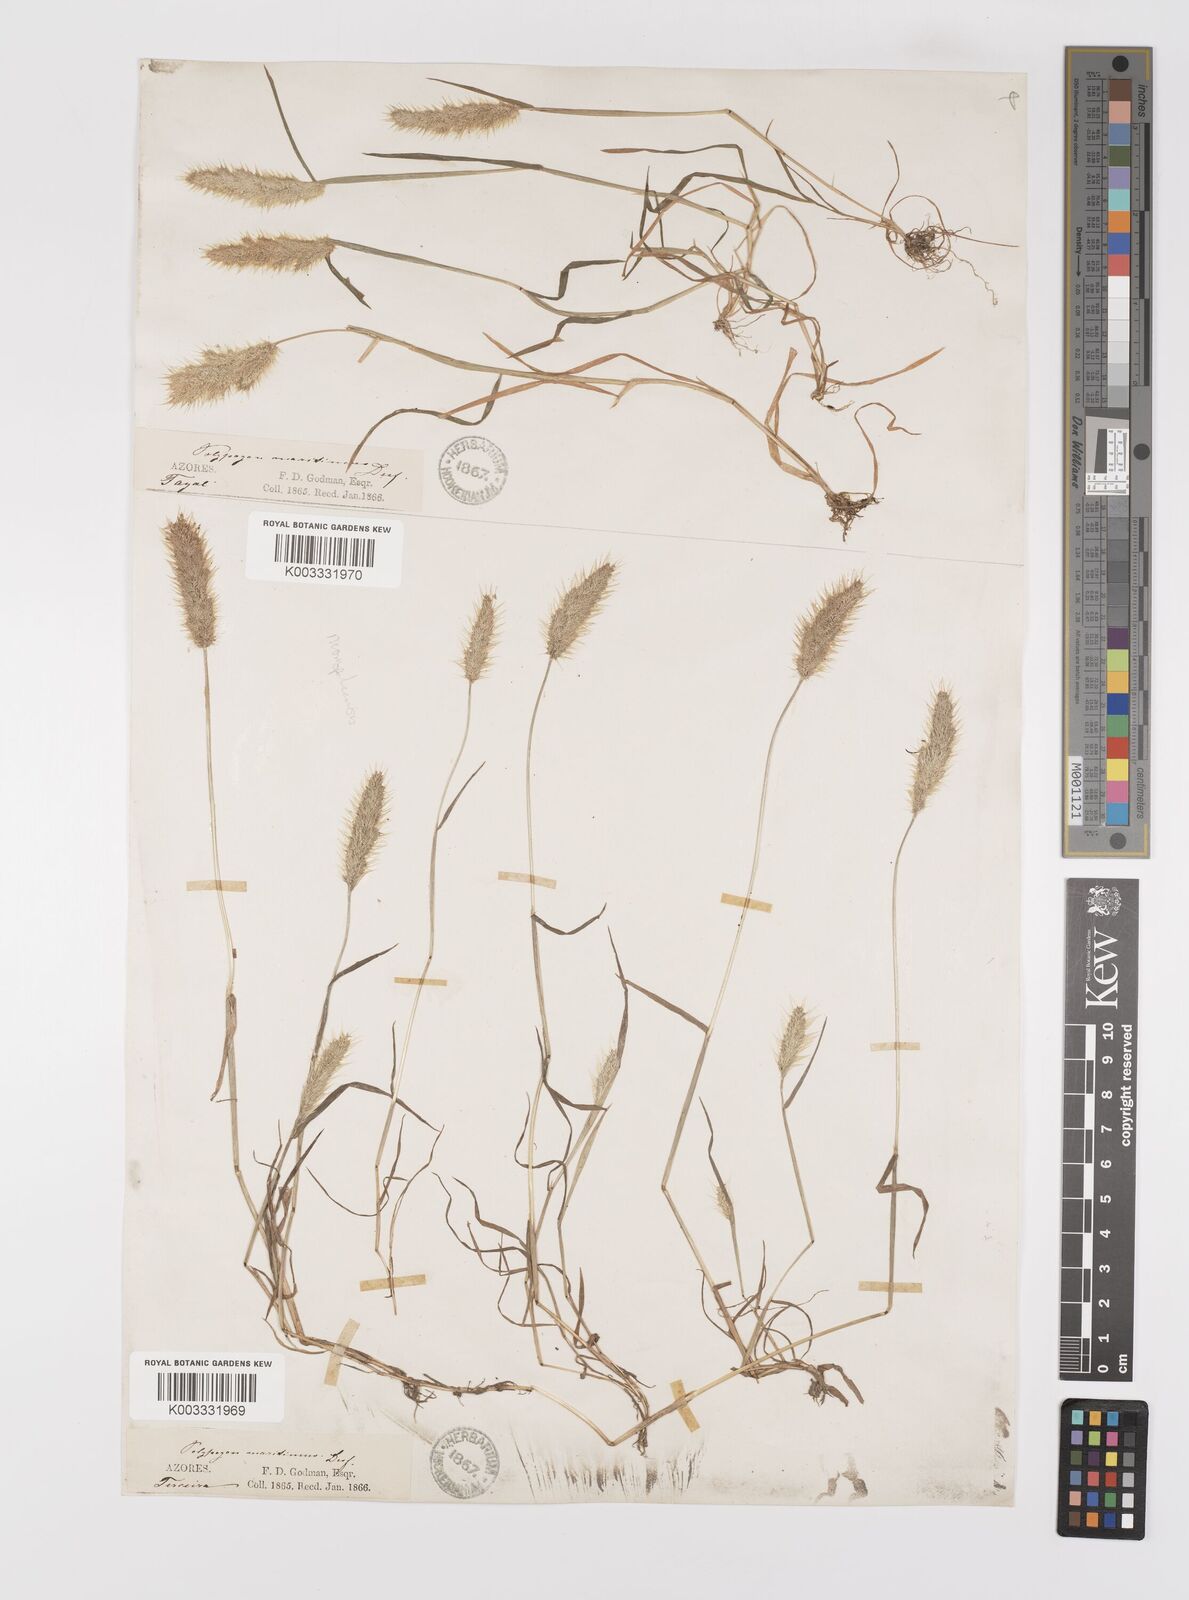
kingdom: Plantae
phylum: Tracheophyta
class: Liliopsida
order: Poales
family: Poaceae
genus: Polypogon
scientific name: Polypogon maritimus
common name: Mediterranean rabbitsfoot grass
